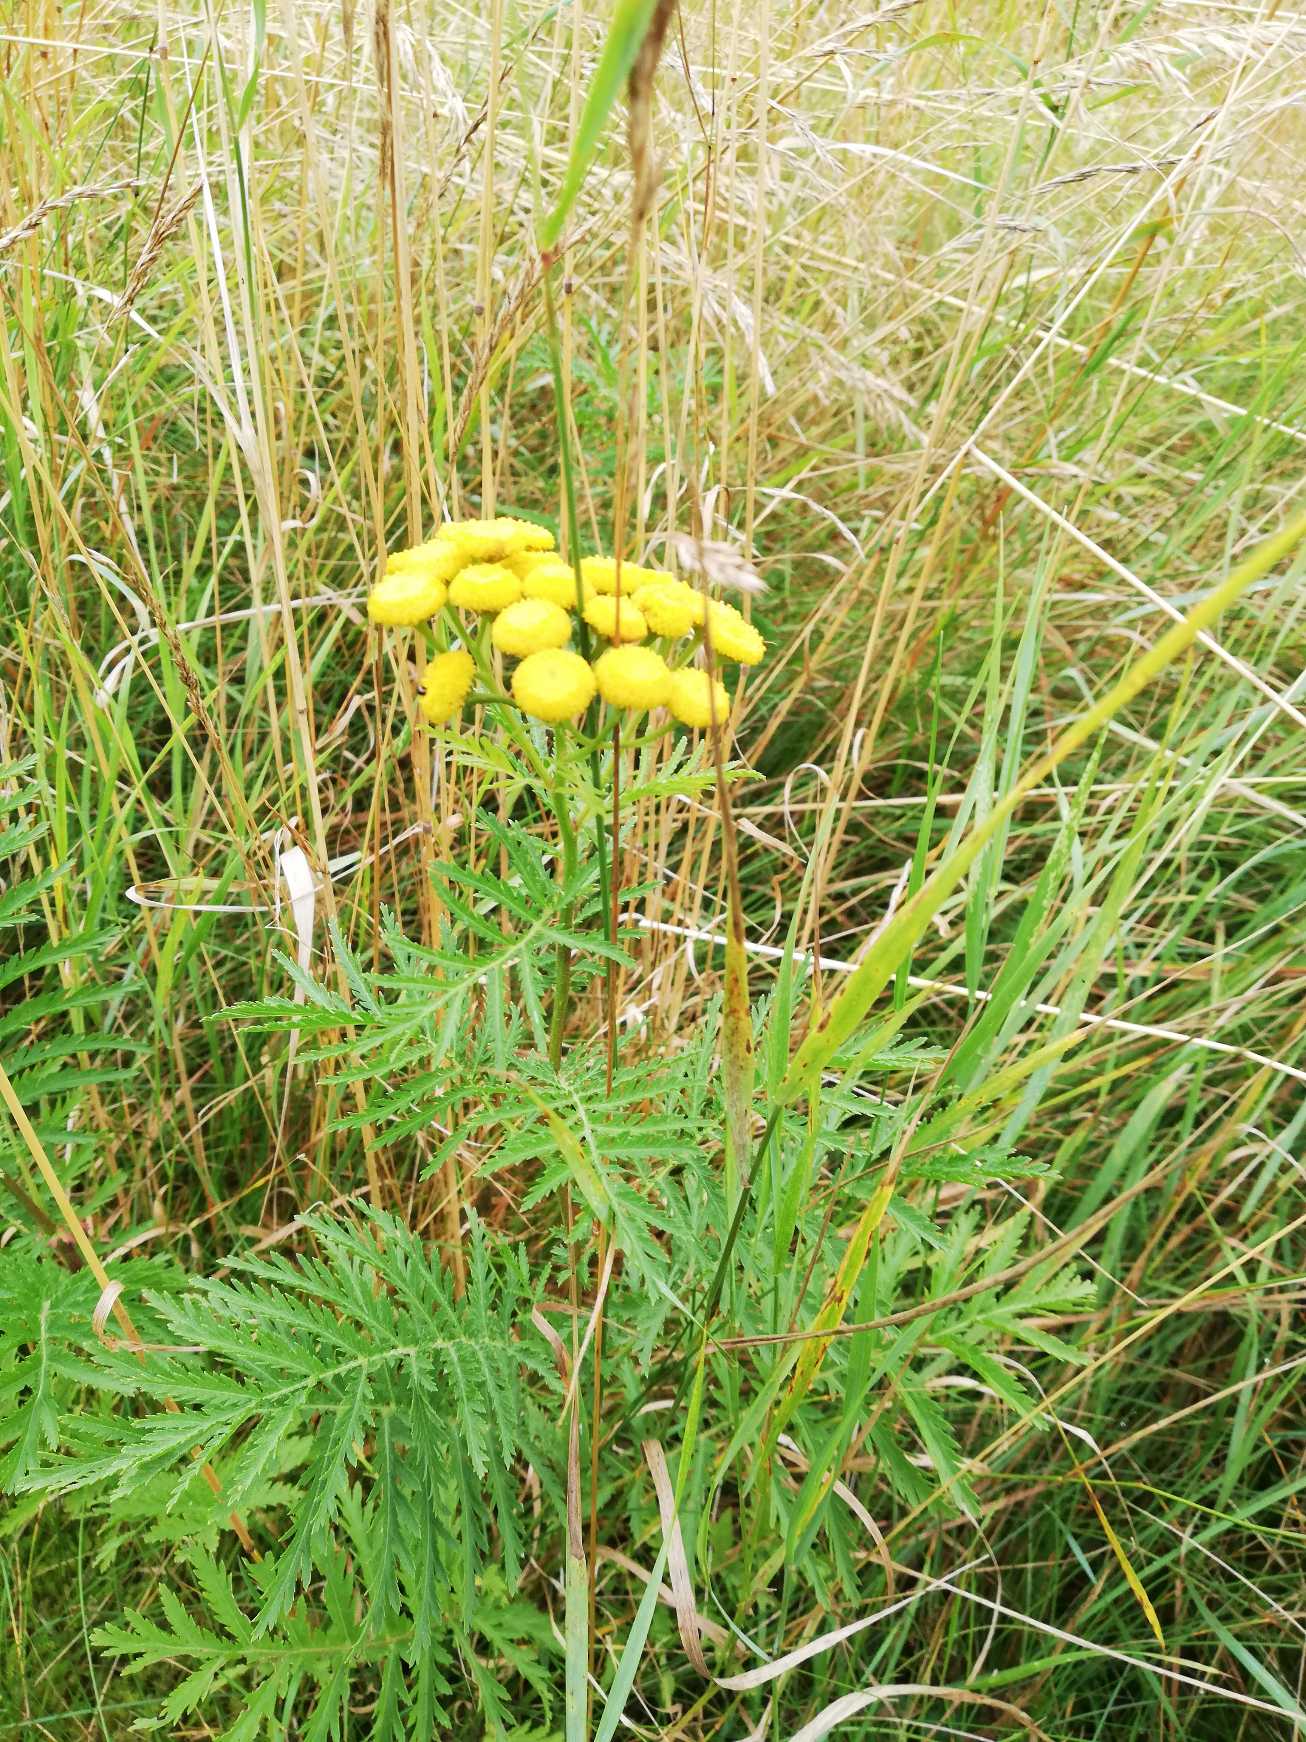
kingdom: Plantae
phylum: Tracheophyta
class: Magnoliopsida
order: Asterales
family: Asteraceae
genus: Tanacetum
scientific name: Tanacetum vulgare
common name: Rejnfan
